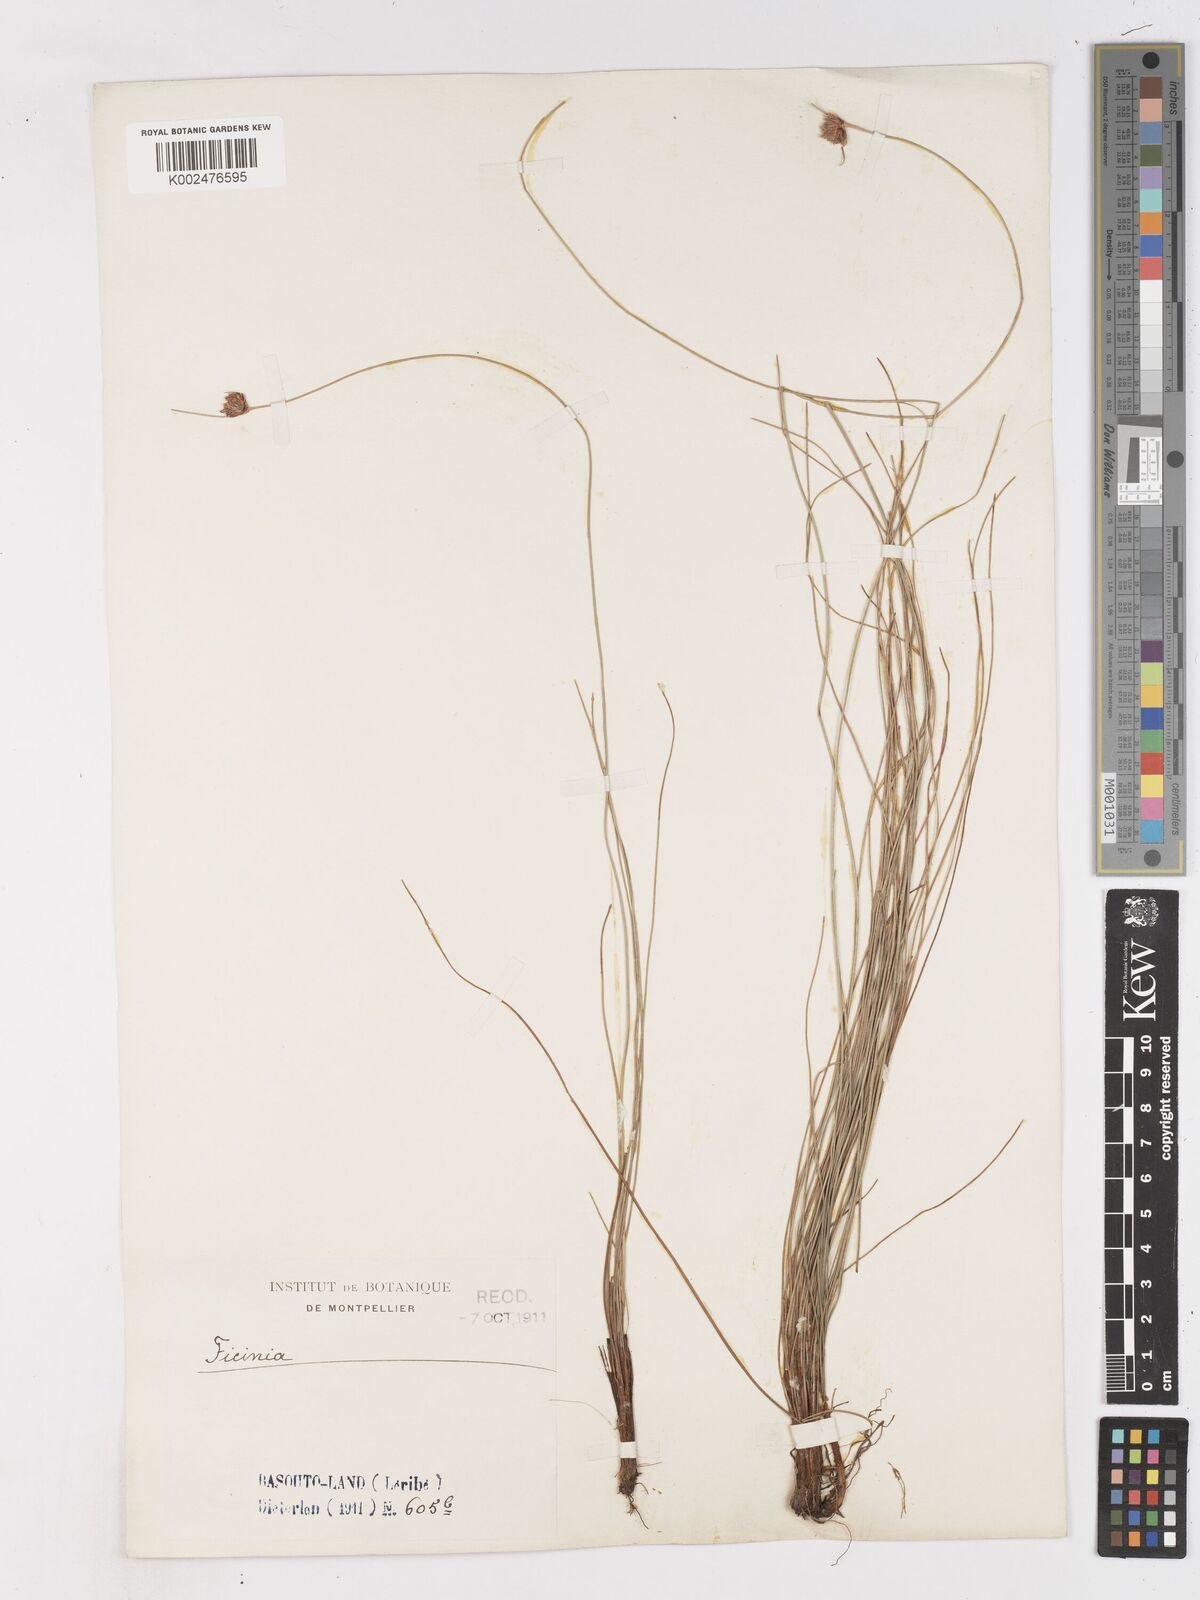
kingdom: Plantae
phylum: Tracheophyta
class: Liliopsida
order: Poales
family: Cyperaceae
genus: Ficinia
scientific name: Ficinia
